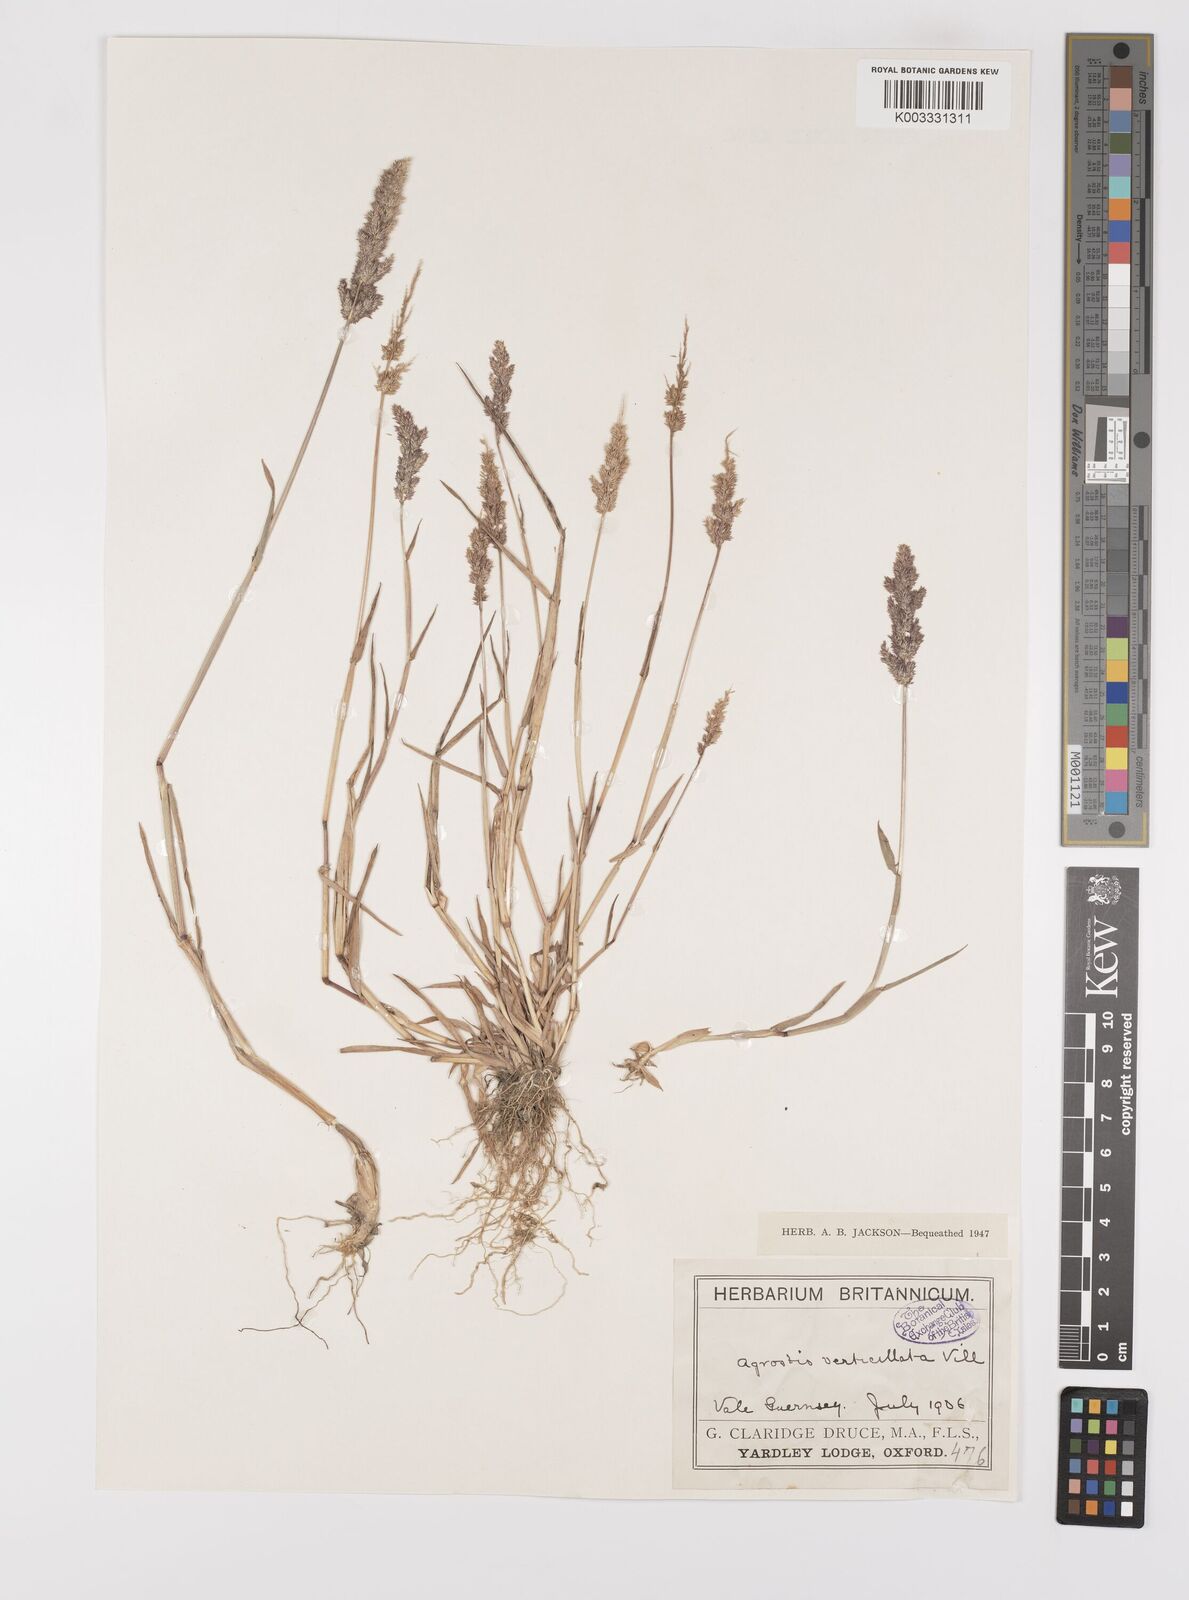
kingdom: Plantae
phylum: Tracheophyta
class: Liliopsida
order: Poales
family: Poaceae
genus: Polypogon
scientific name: Polypogon viridis
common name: Water bent
